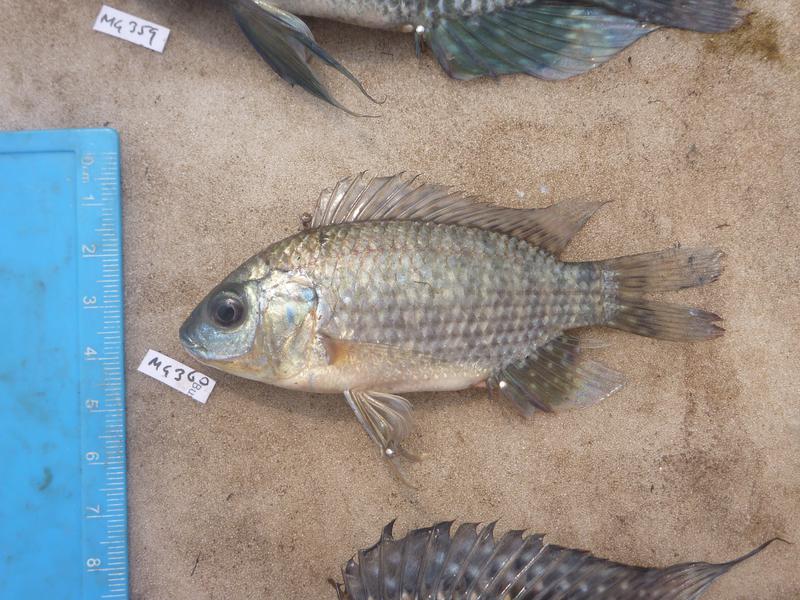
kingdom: Animalia
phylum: Chordata
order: Perciformes
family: Cichlidae
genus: Oreochromis
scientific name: Oreochromis leucostictus
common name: Blue spotted tilapia
